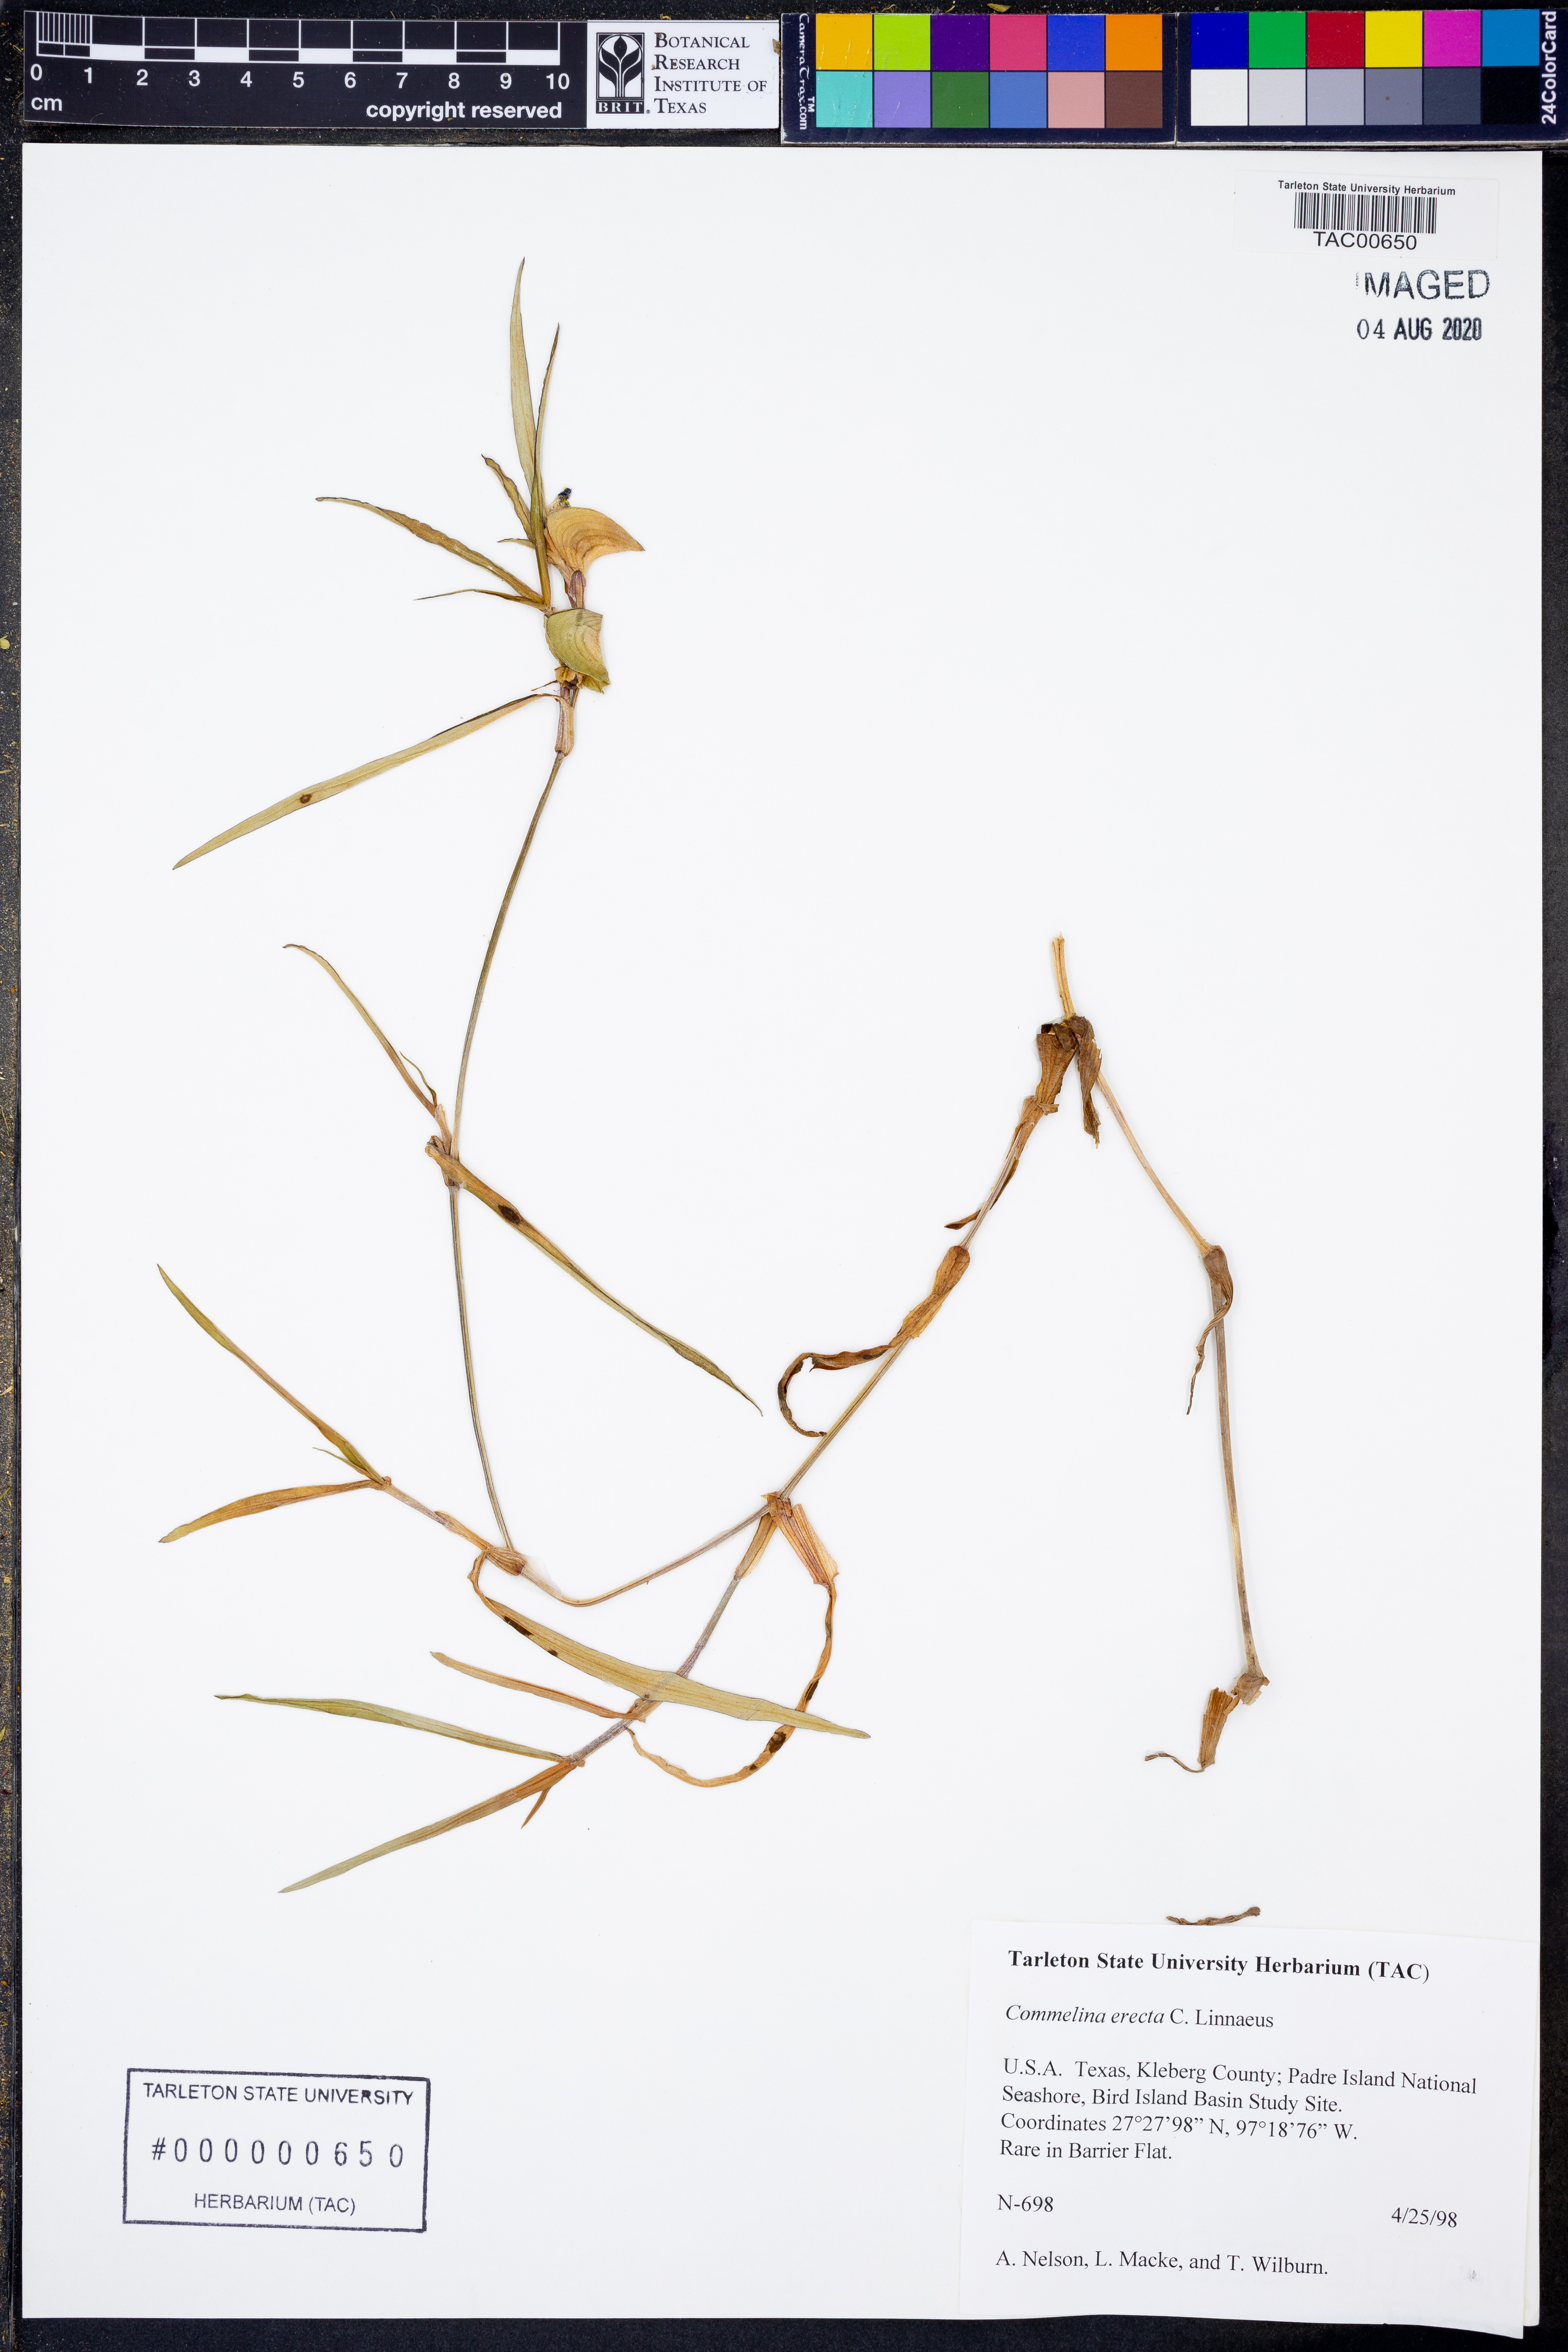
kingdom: Plantae
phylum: Tracheophyta
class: Liliopsida
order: Commelinales
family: Commelinaceae
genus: Commelina
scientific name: Commelina erecta
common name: Blousel blommetjie
